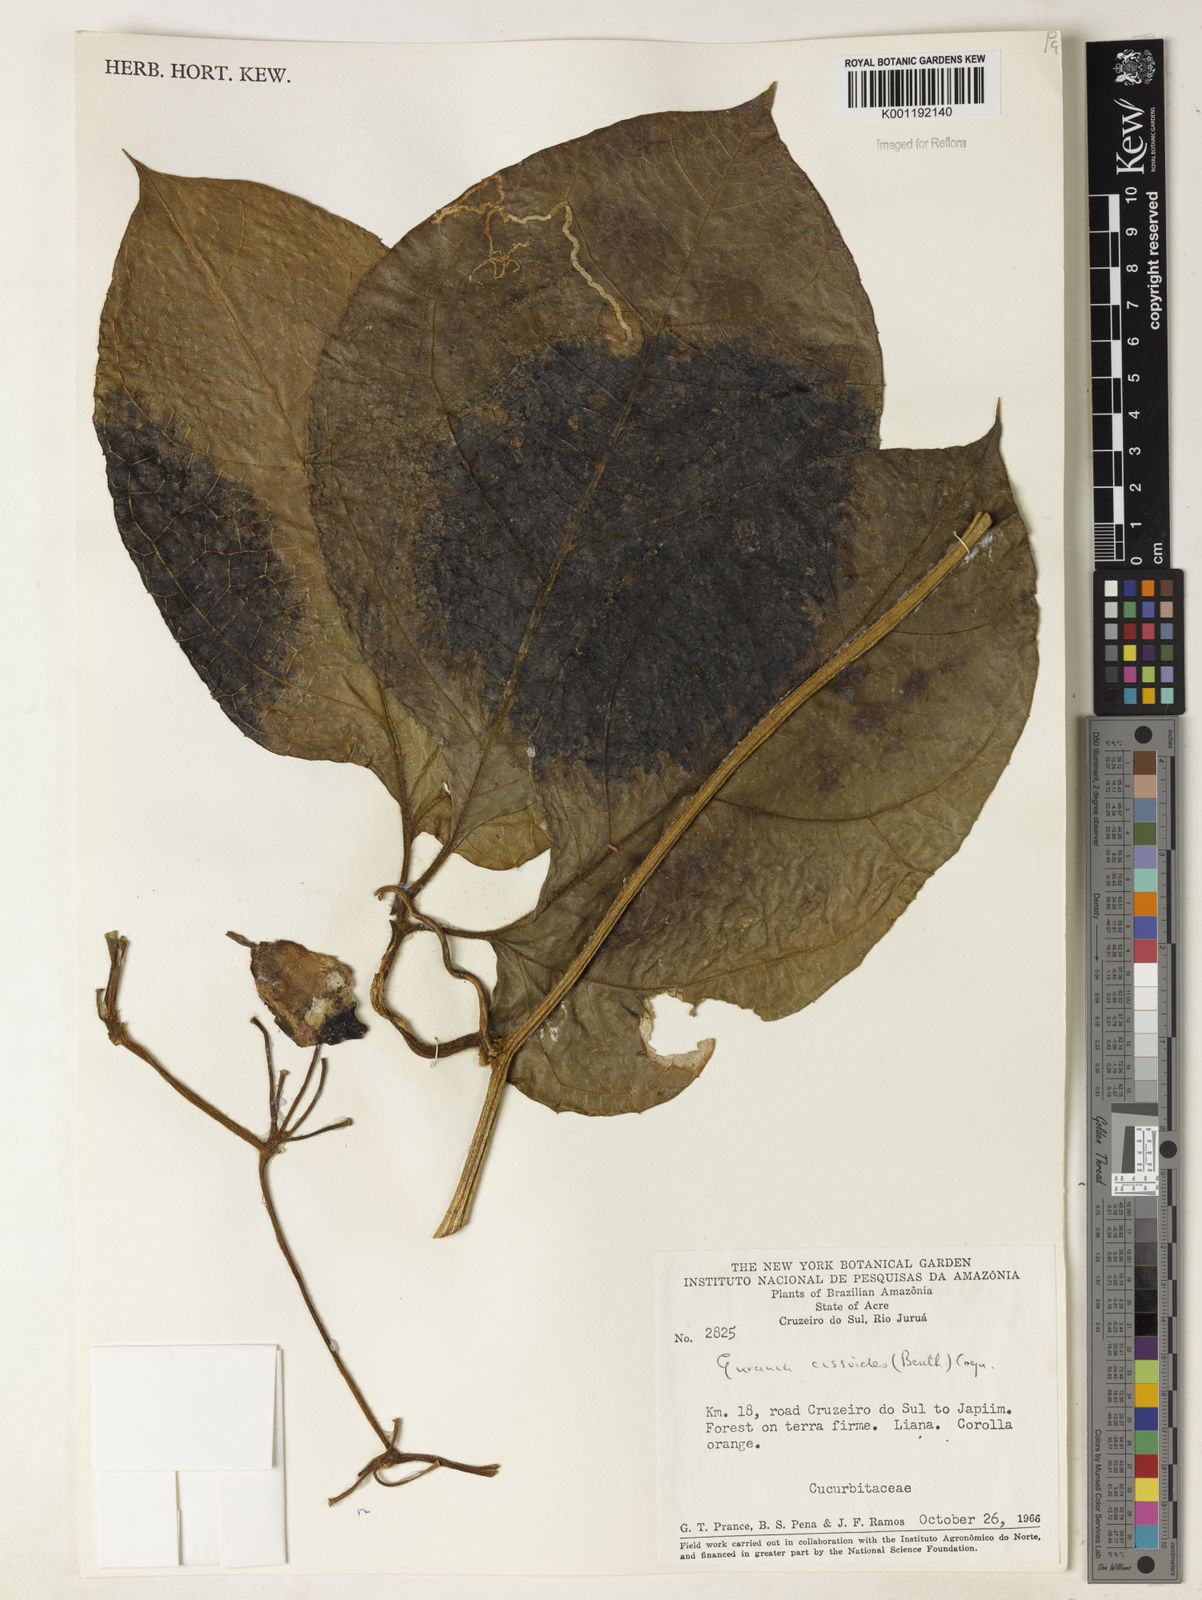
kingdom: Plantae
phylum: Tracheophyta
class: Magnoliopsida
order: Cucurbitales
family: Cucurbitaceae
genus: Gurania
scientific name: Gurania bignoniacea
